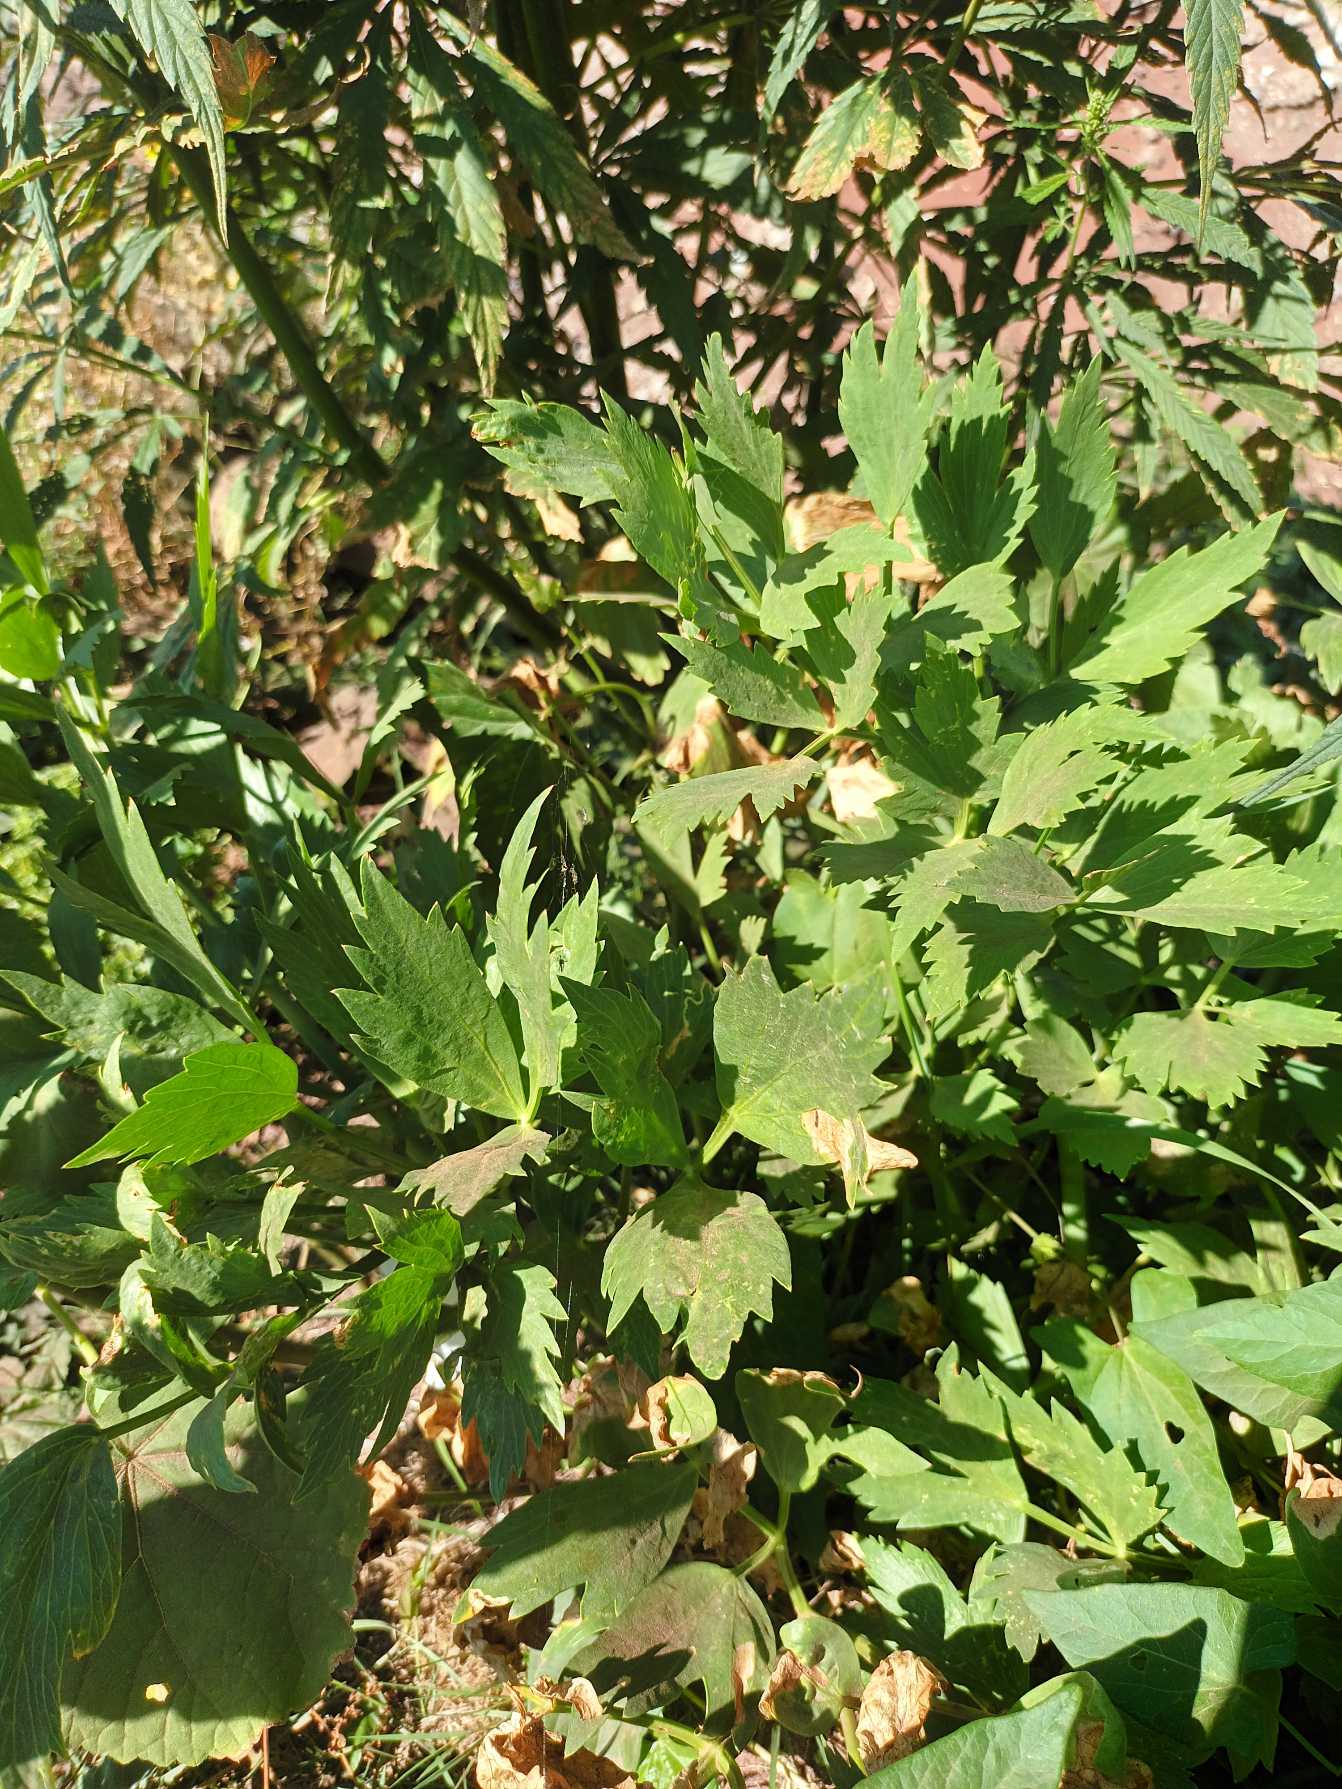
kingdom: Plantae
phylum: Tracheophyta
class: Magnoliopsida
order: Apiales
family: Apiaceae
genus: Levisticum
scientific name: Levisticum officinale
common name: Løvstikke
